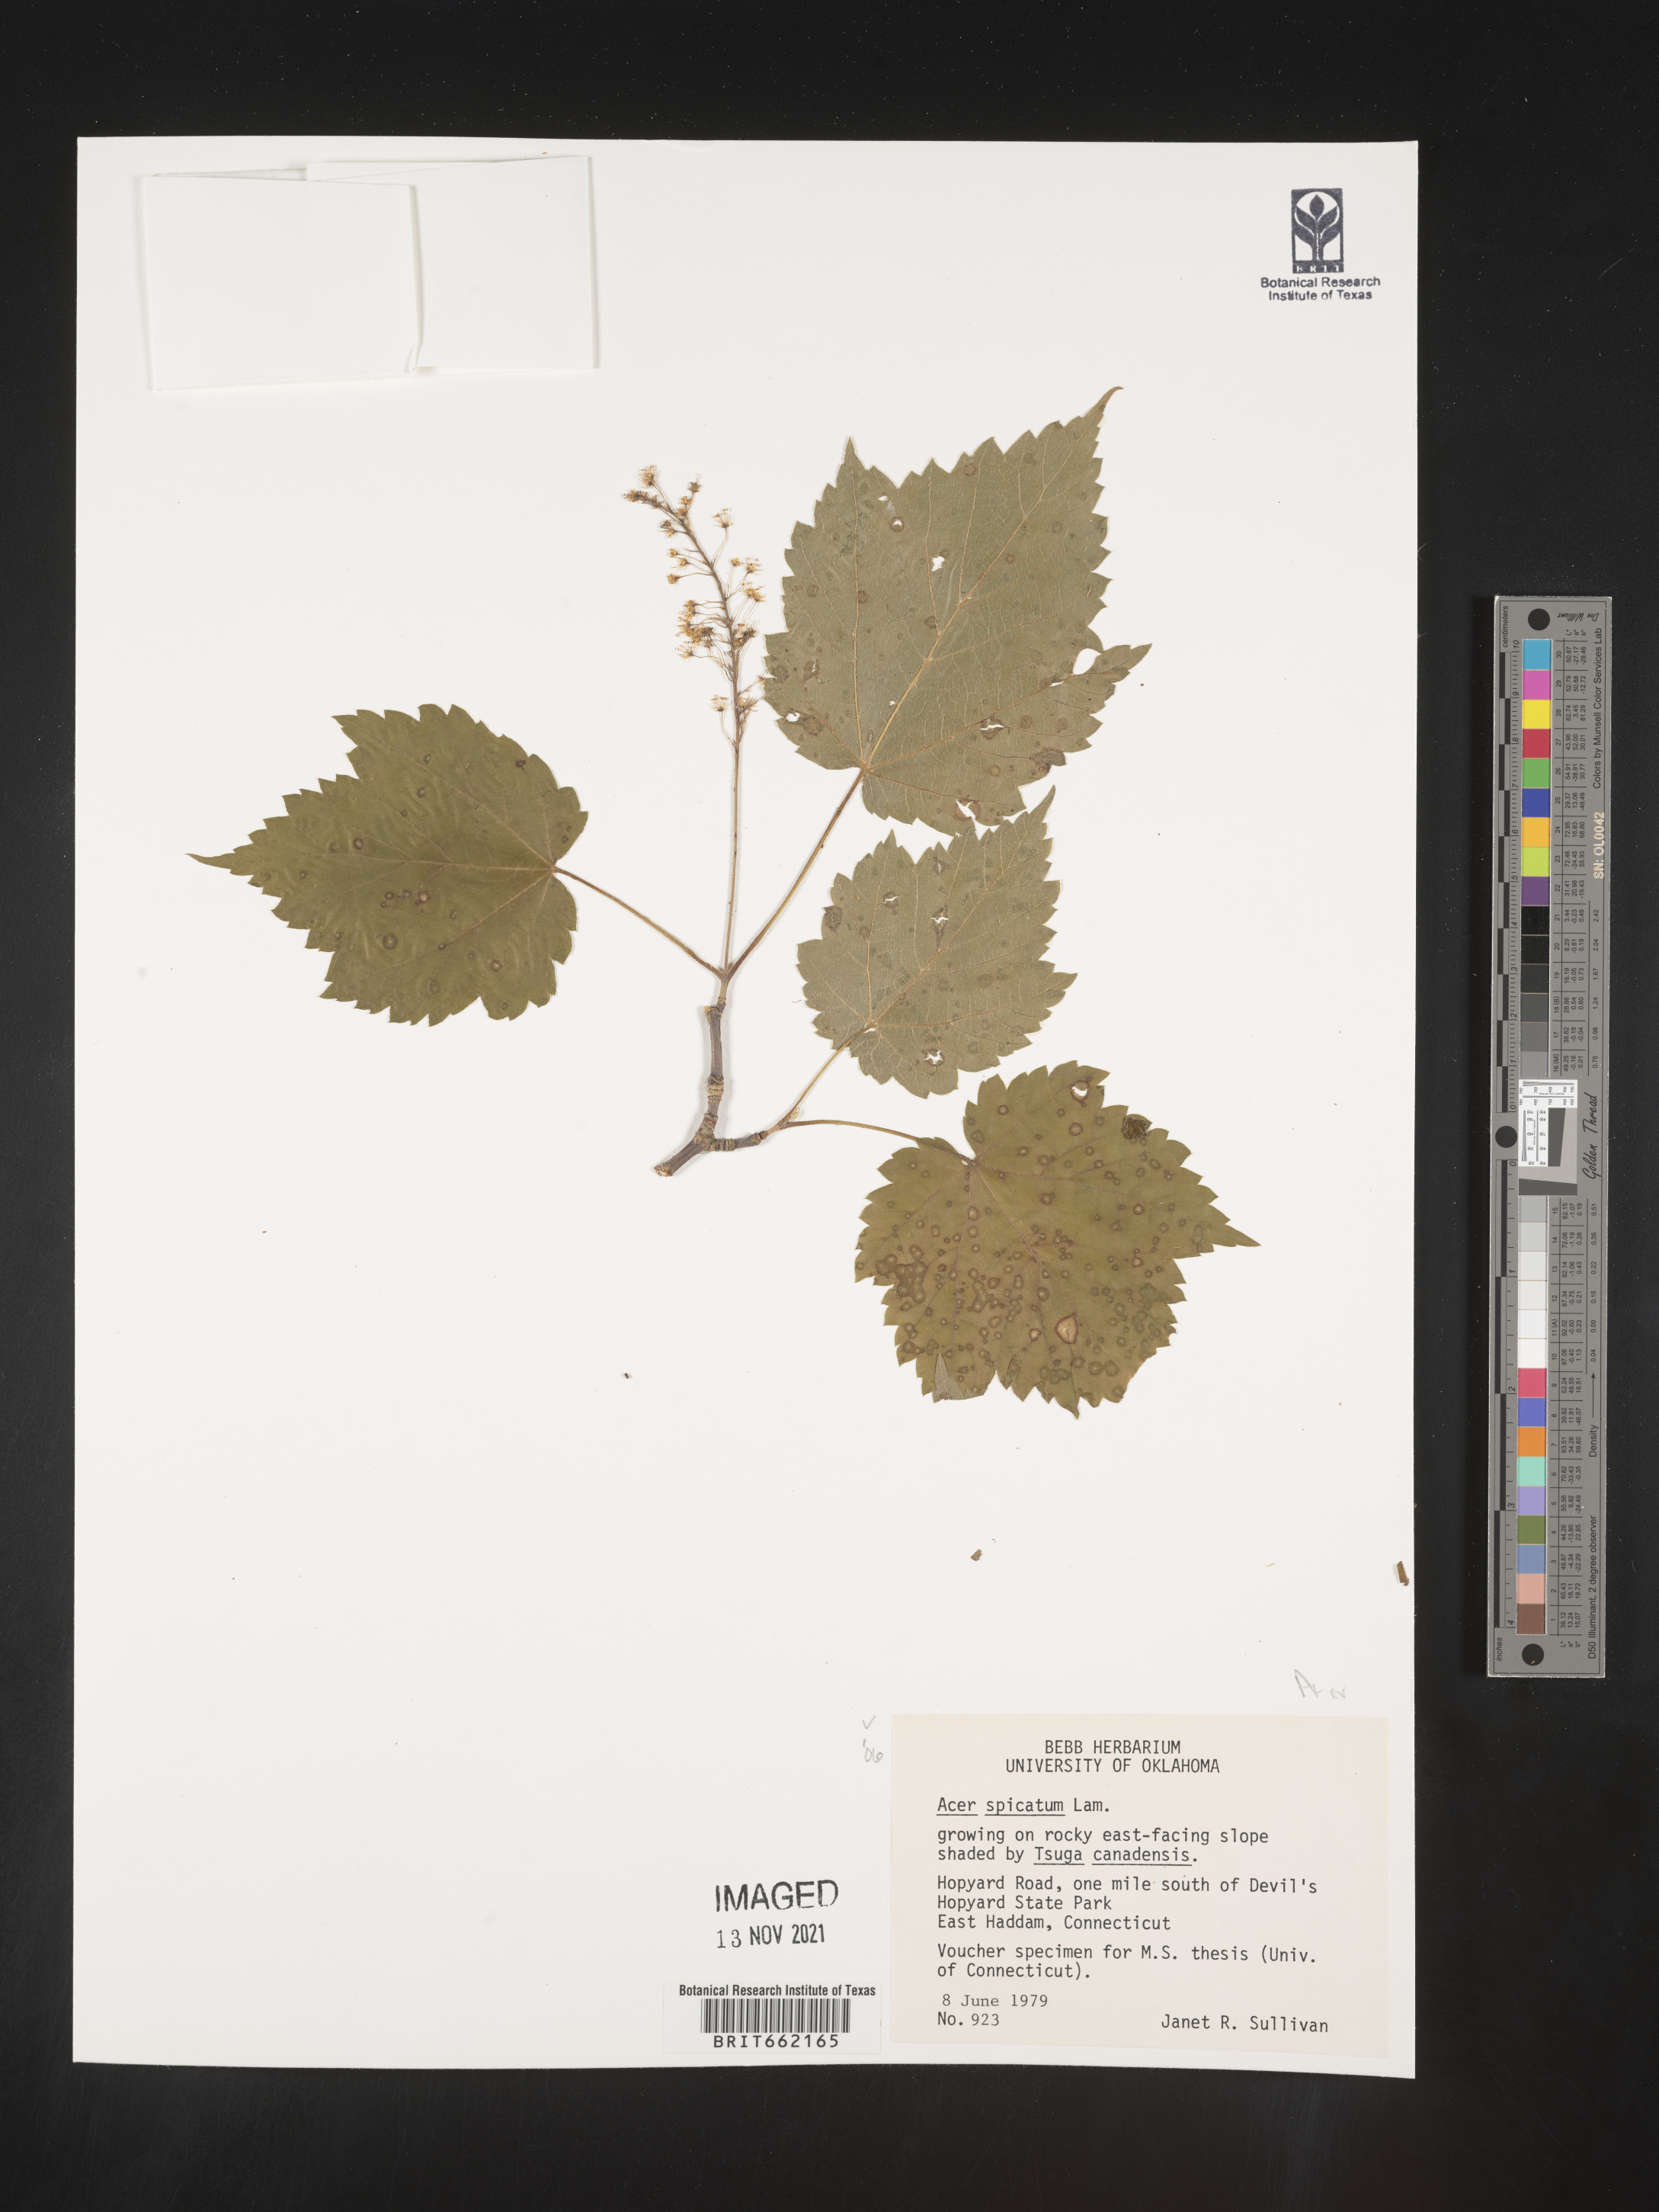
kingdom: Plantae
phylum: Tracheophyta
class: Magnoliopsida
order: Sapindales
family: Sapindaceae
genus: Acer
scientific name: Acer spicatum
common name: Mountain maple
